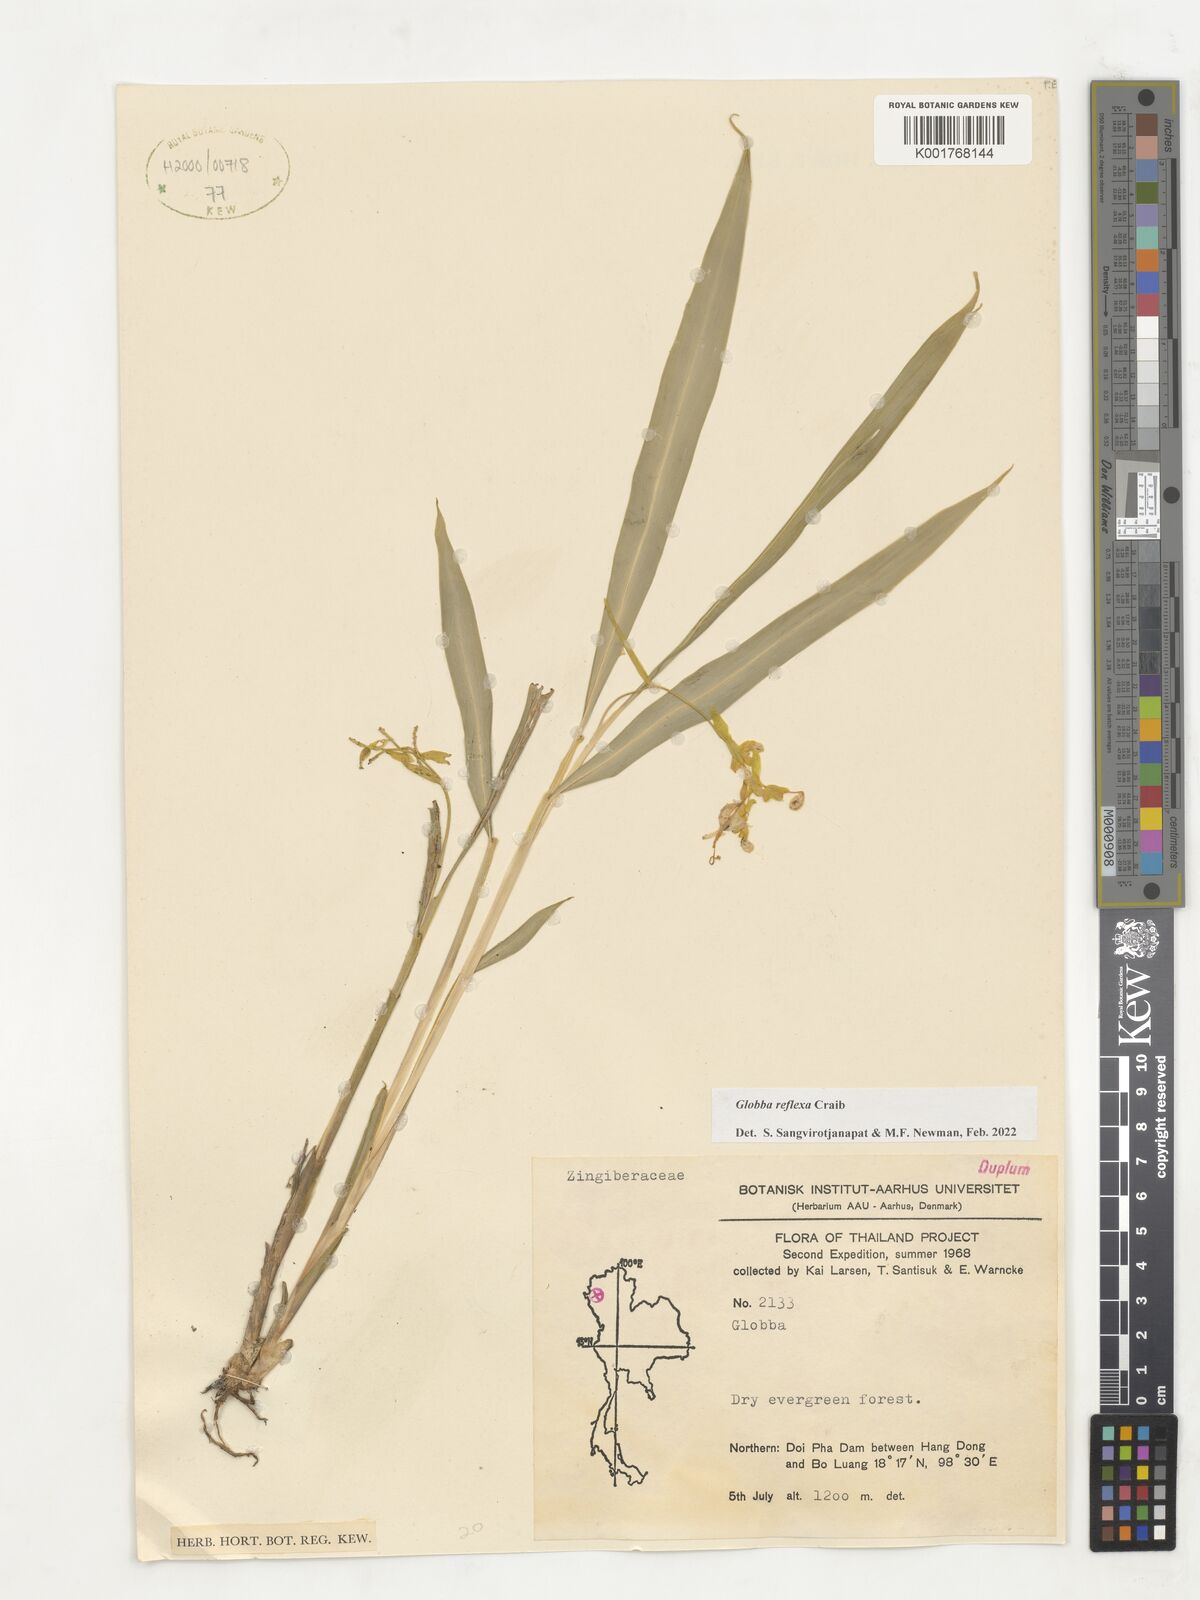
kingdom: Plantae
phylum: Tracheophyta
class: Liliopsida
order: Zingiberales
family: Zingiberaceae
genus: Globba
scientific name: Globba reflexa
